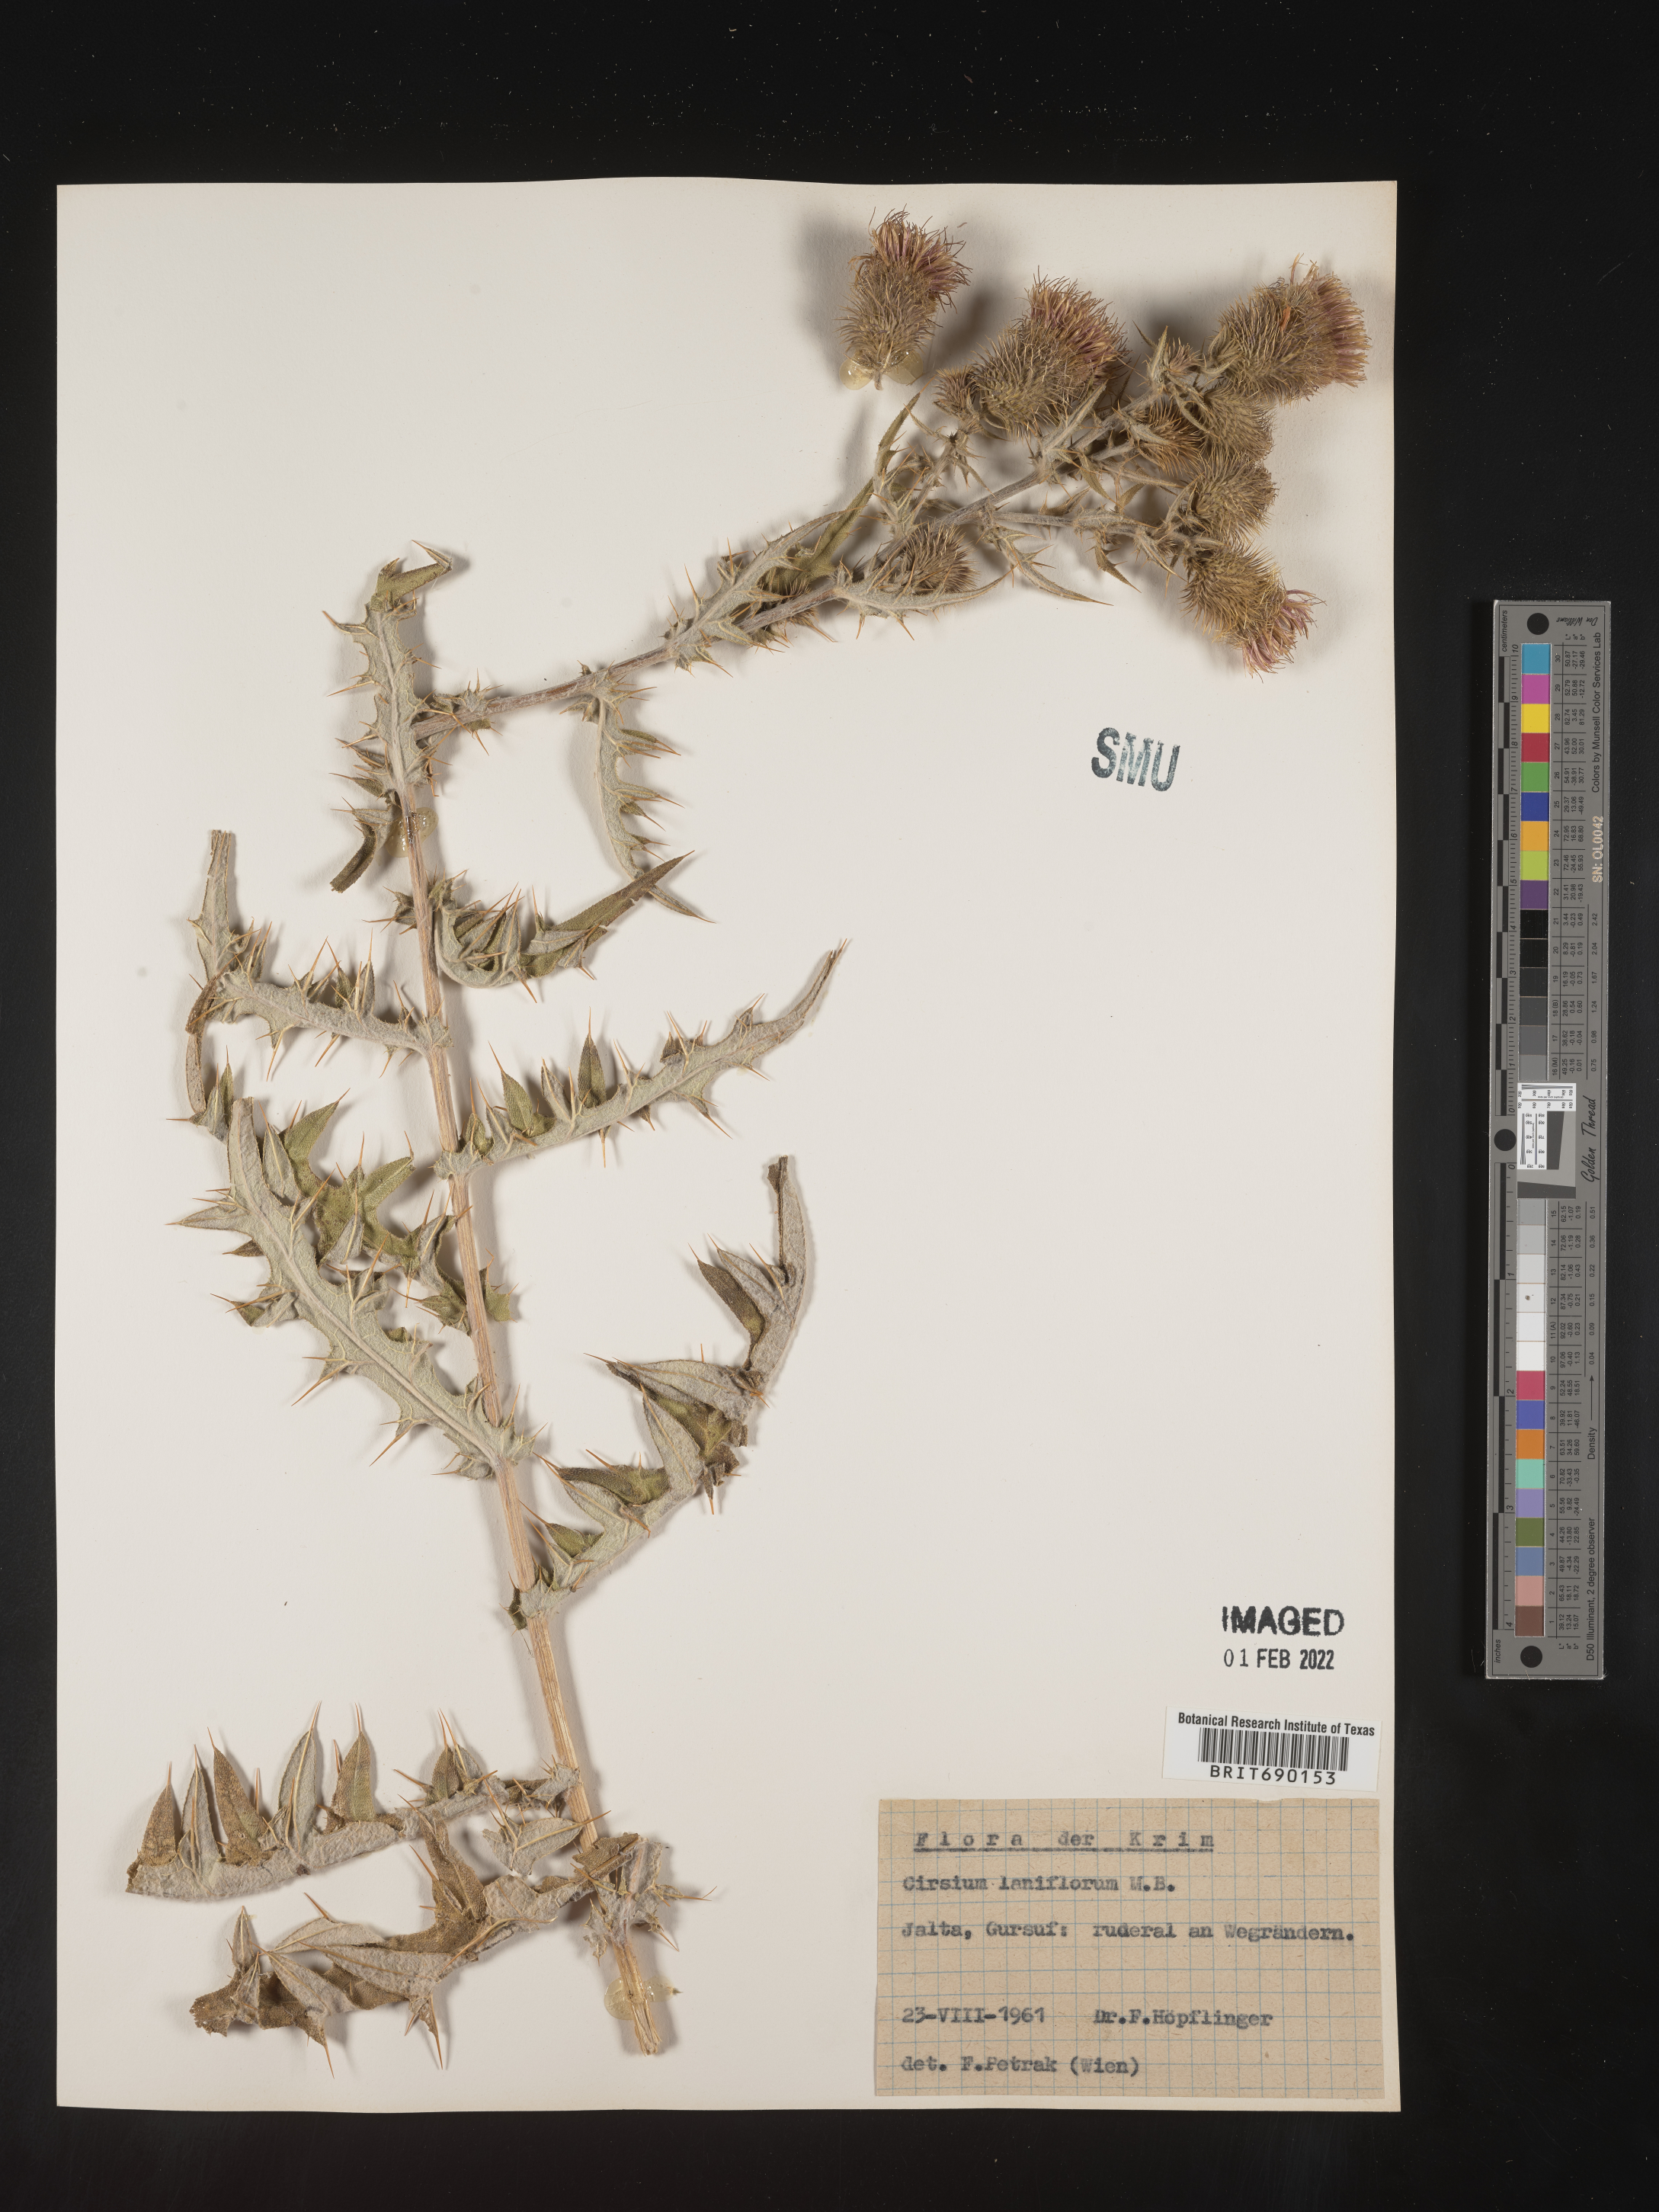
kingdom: Plantae
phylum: Tracheophyta
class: Magnoliopsida
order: Asterales
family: Asteraceae
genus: Cirsium
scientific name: Cirsium
